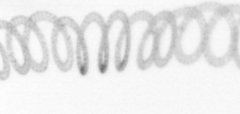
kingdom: Chromista
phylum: Ochrophyta
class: Bacillariophyceae
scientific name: Bacillariophyceae
